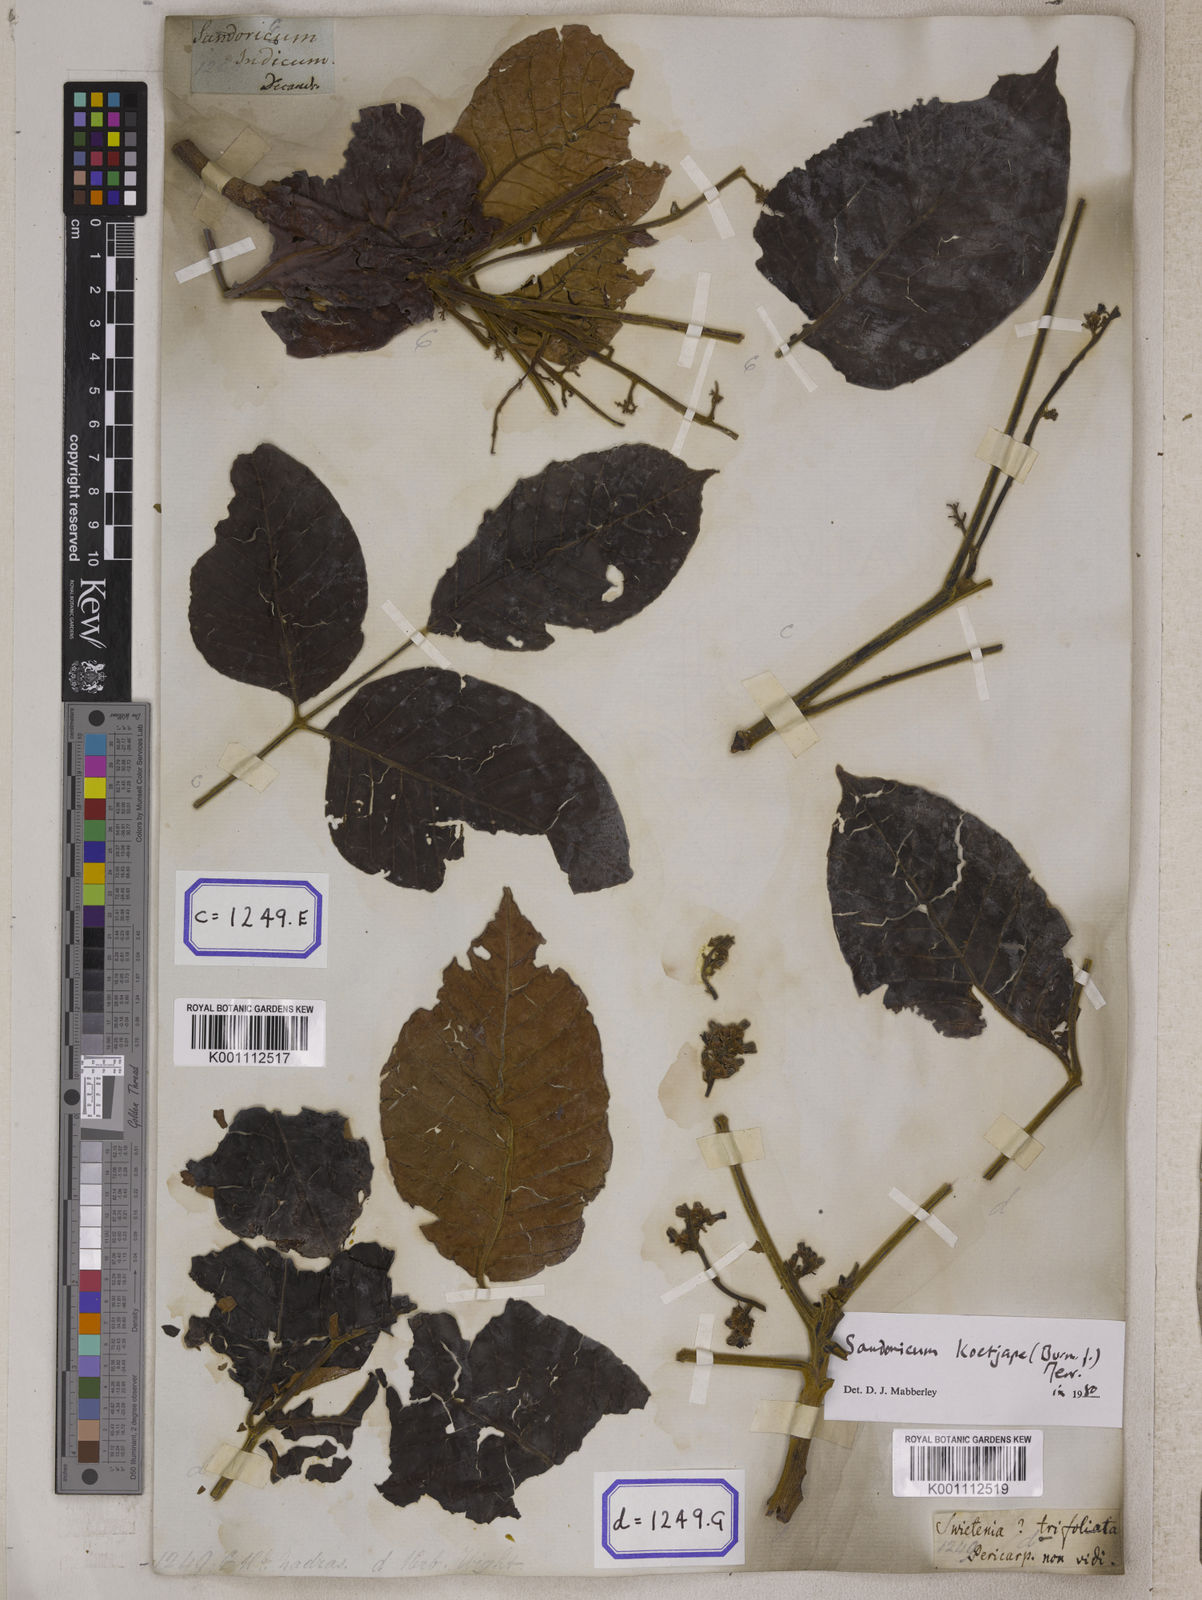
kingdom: Plantae
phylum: Tracheophyta
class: Magnoliopsida
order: Sapindales
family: Meliaceae
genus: Sandoricum
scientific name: Sandoricum koetjape
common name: Santol
